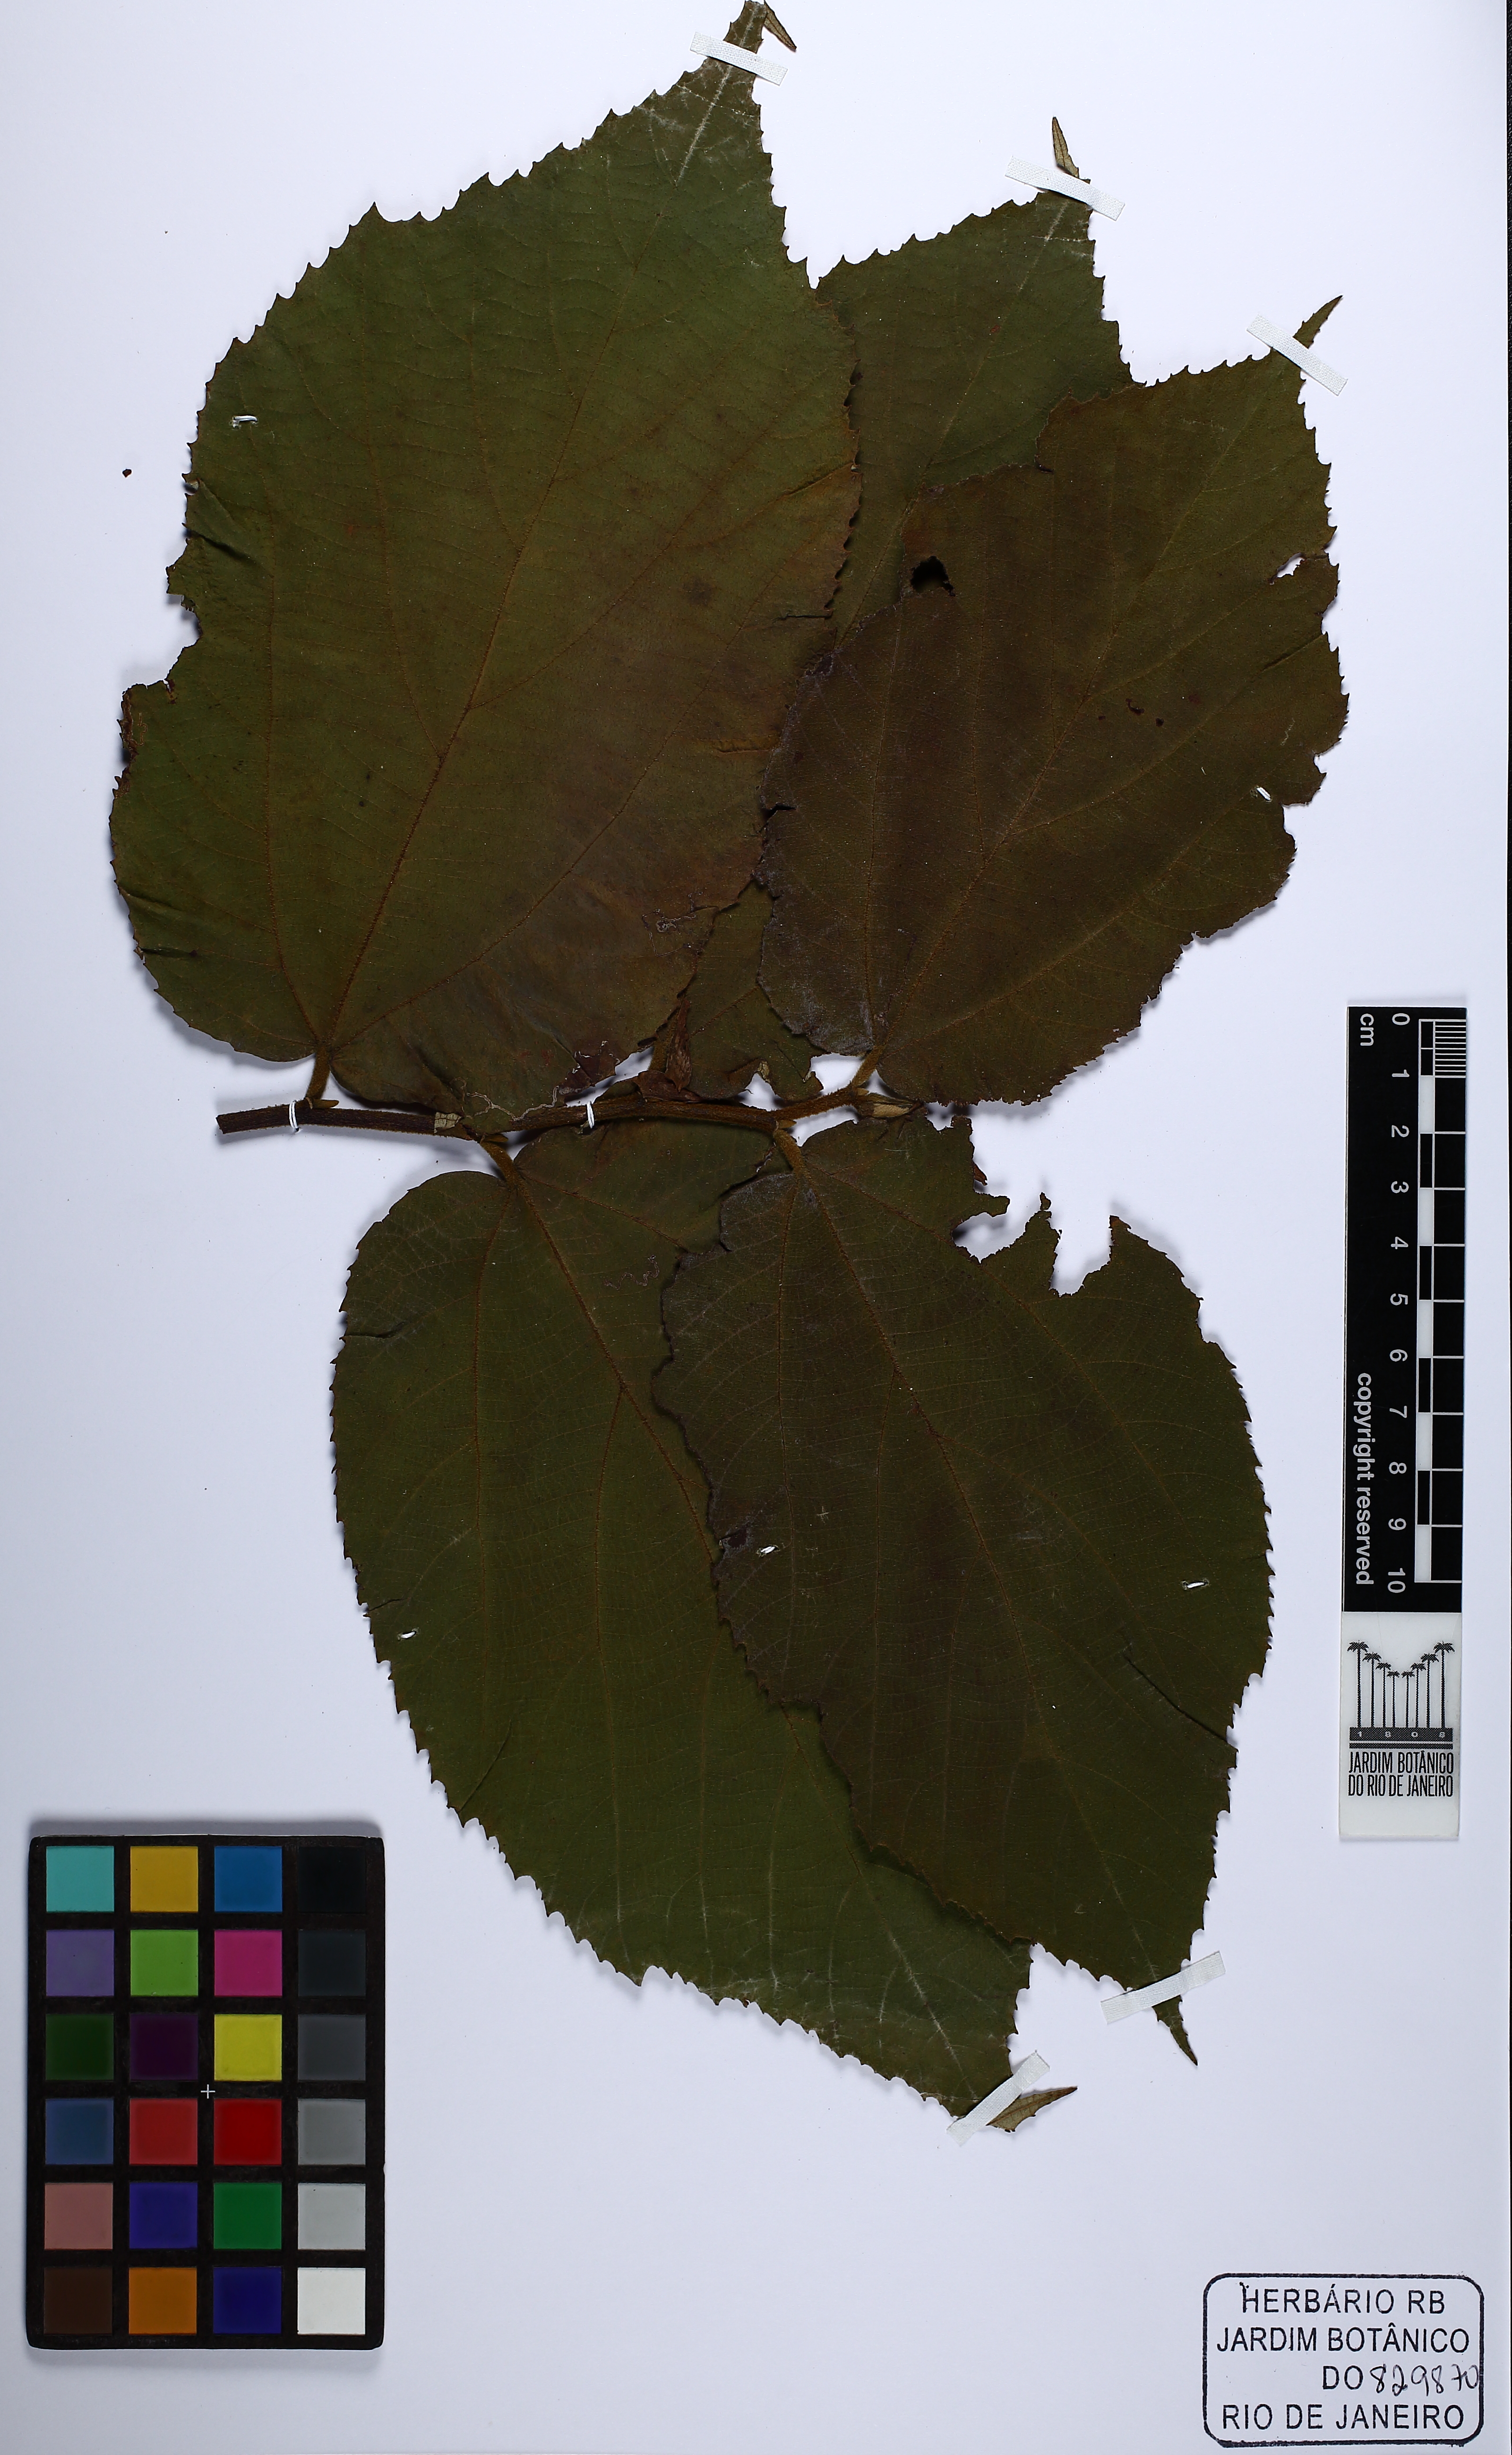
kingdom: Plantae
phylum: Tracheophyta
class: Magnoliopsida
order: Malvales
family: Malvaceae
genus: Luehea
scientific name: Luehea speciosa
